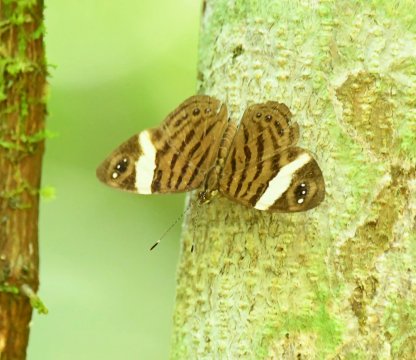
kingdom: Animalia
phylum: Arthropoda
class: Insecta
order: Lepidoptera
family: Nymphalidae
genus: Ectima
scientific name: Ectima erycinoides
